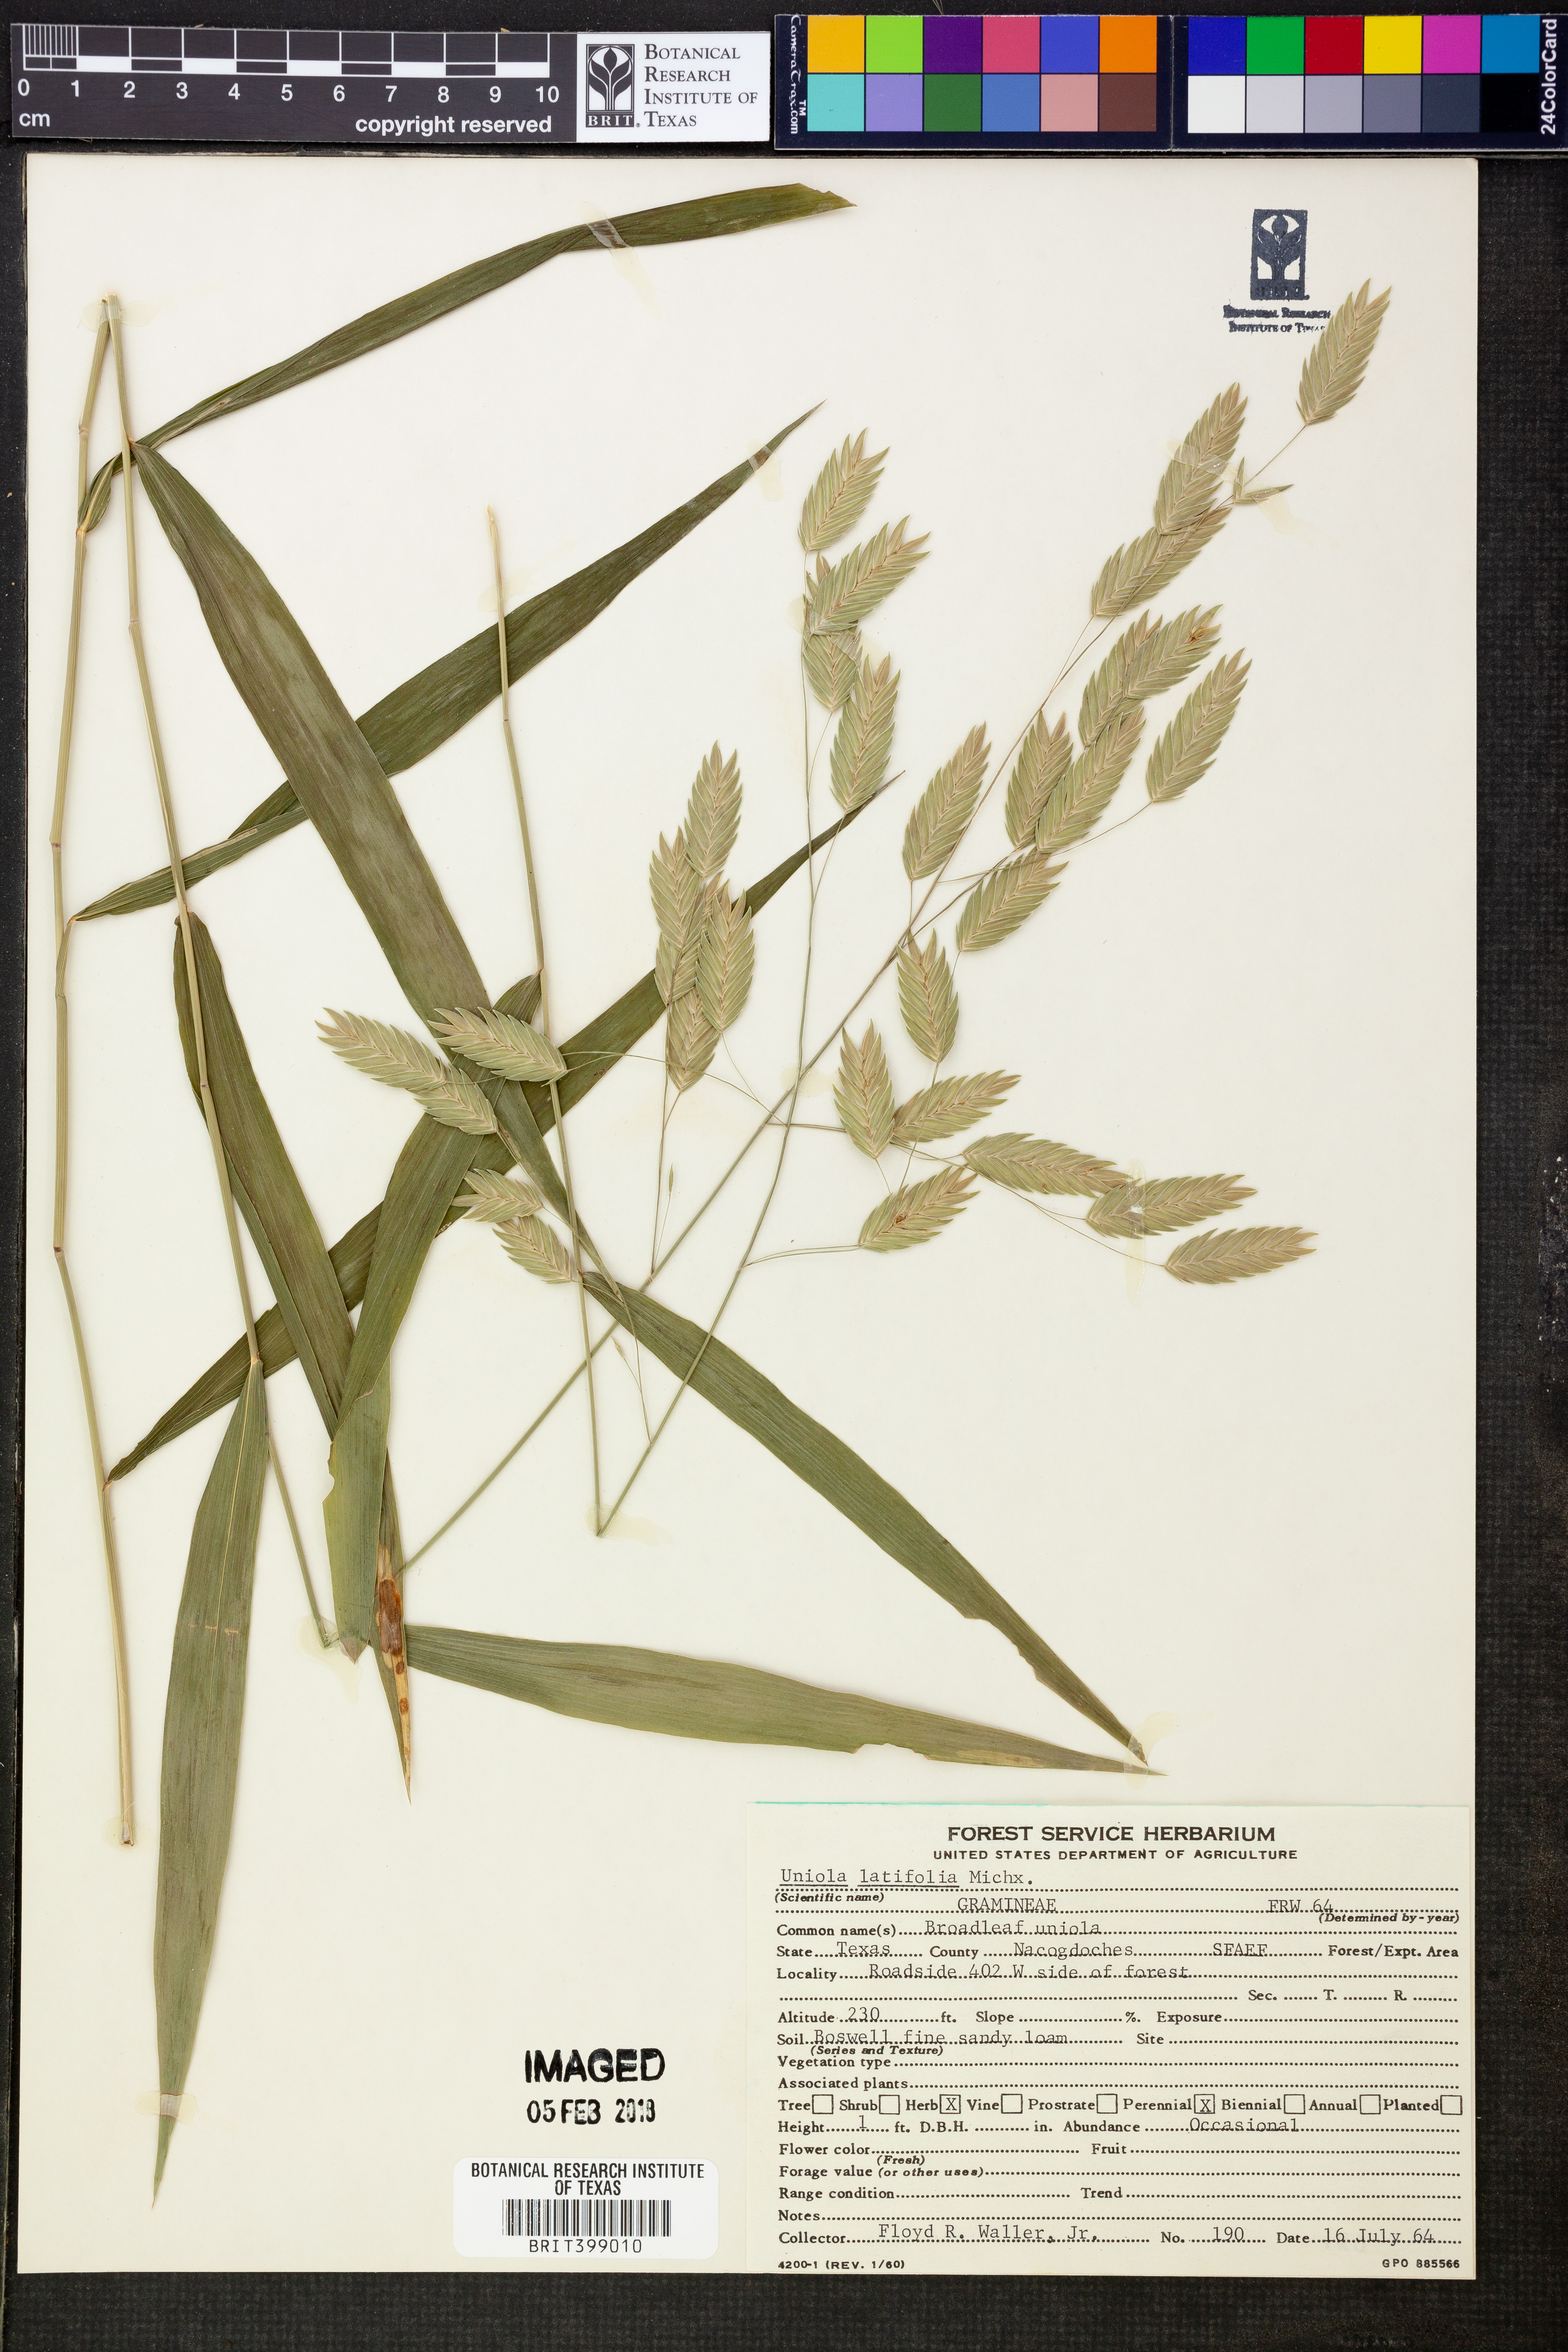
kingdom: Plantae
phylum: Tracheophyta
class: Liliopsida
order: Poales
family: Poaceae
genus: Chasmanthium
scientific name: Chasmanthium latifolium
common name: Broad-leaved chasmanthium
